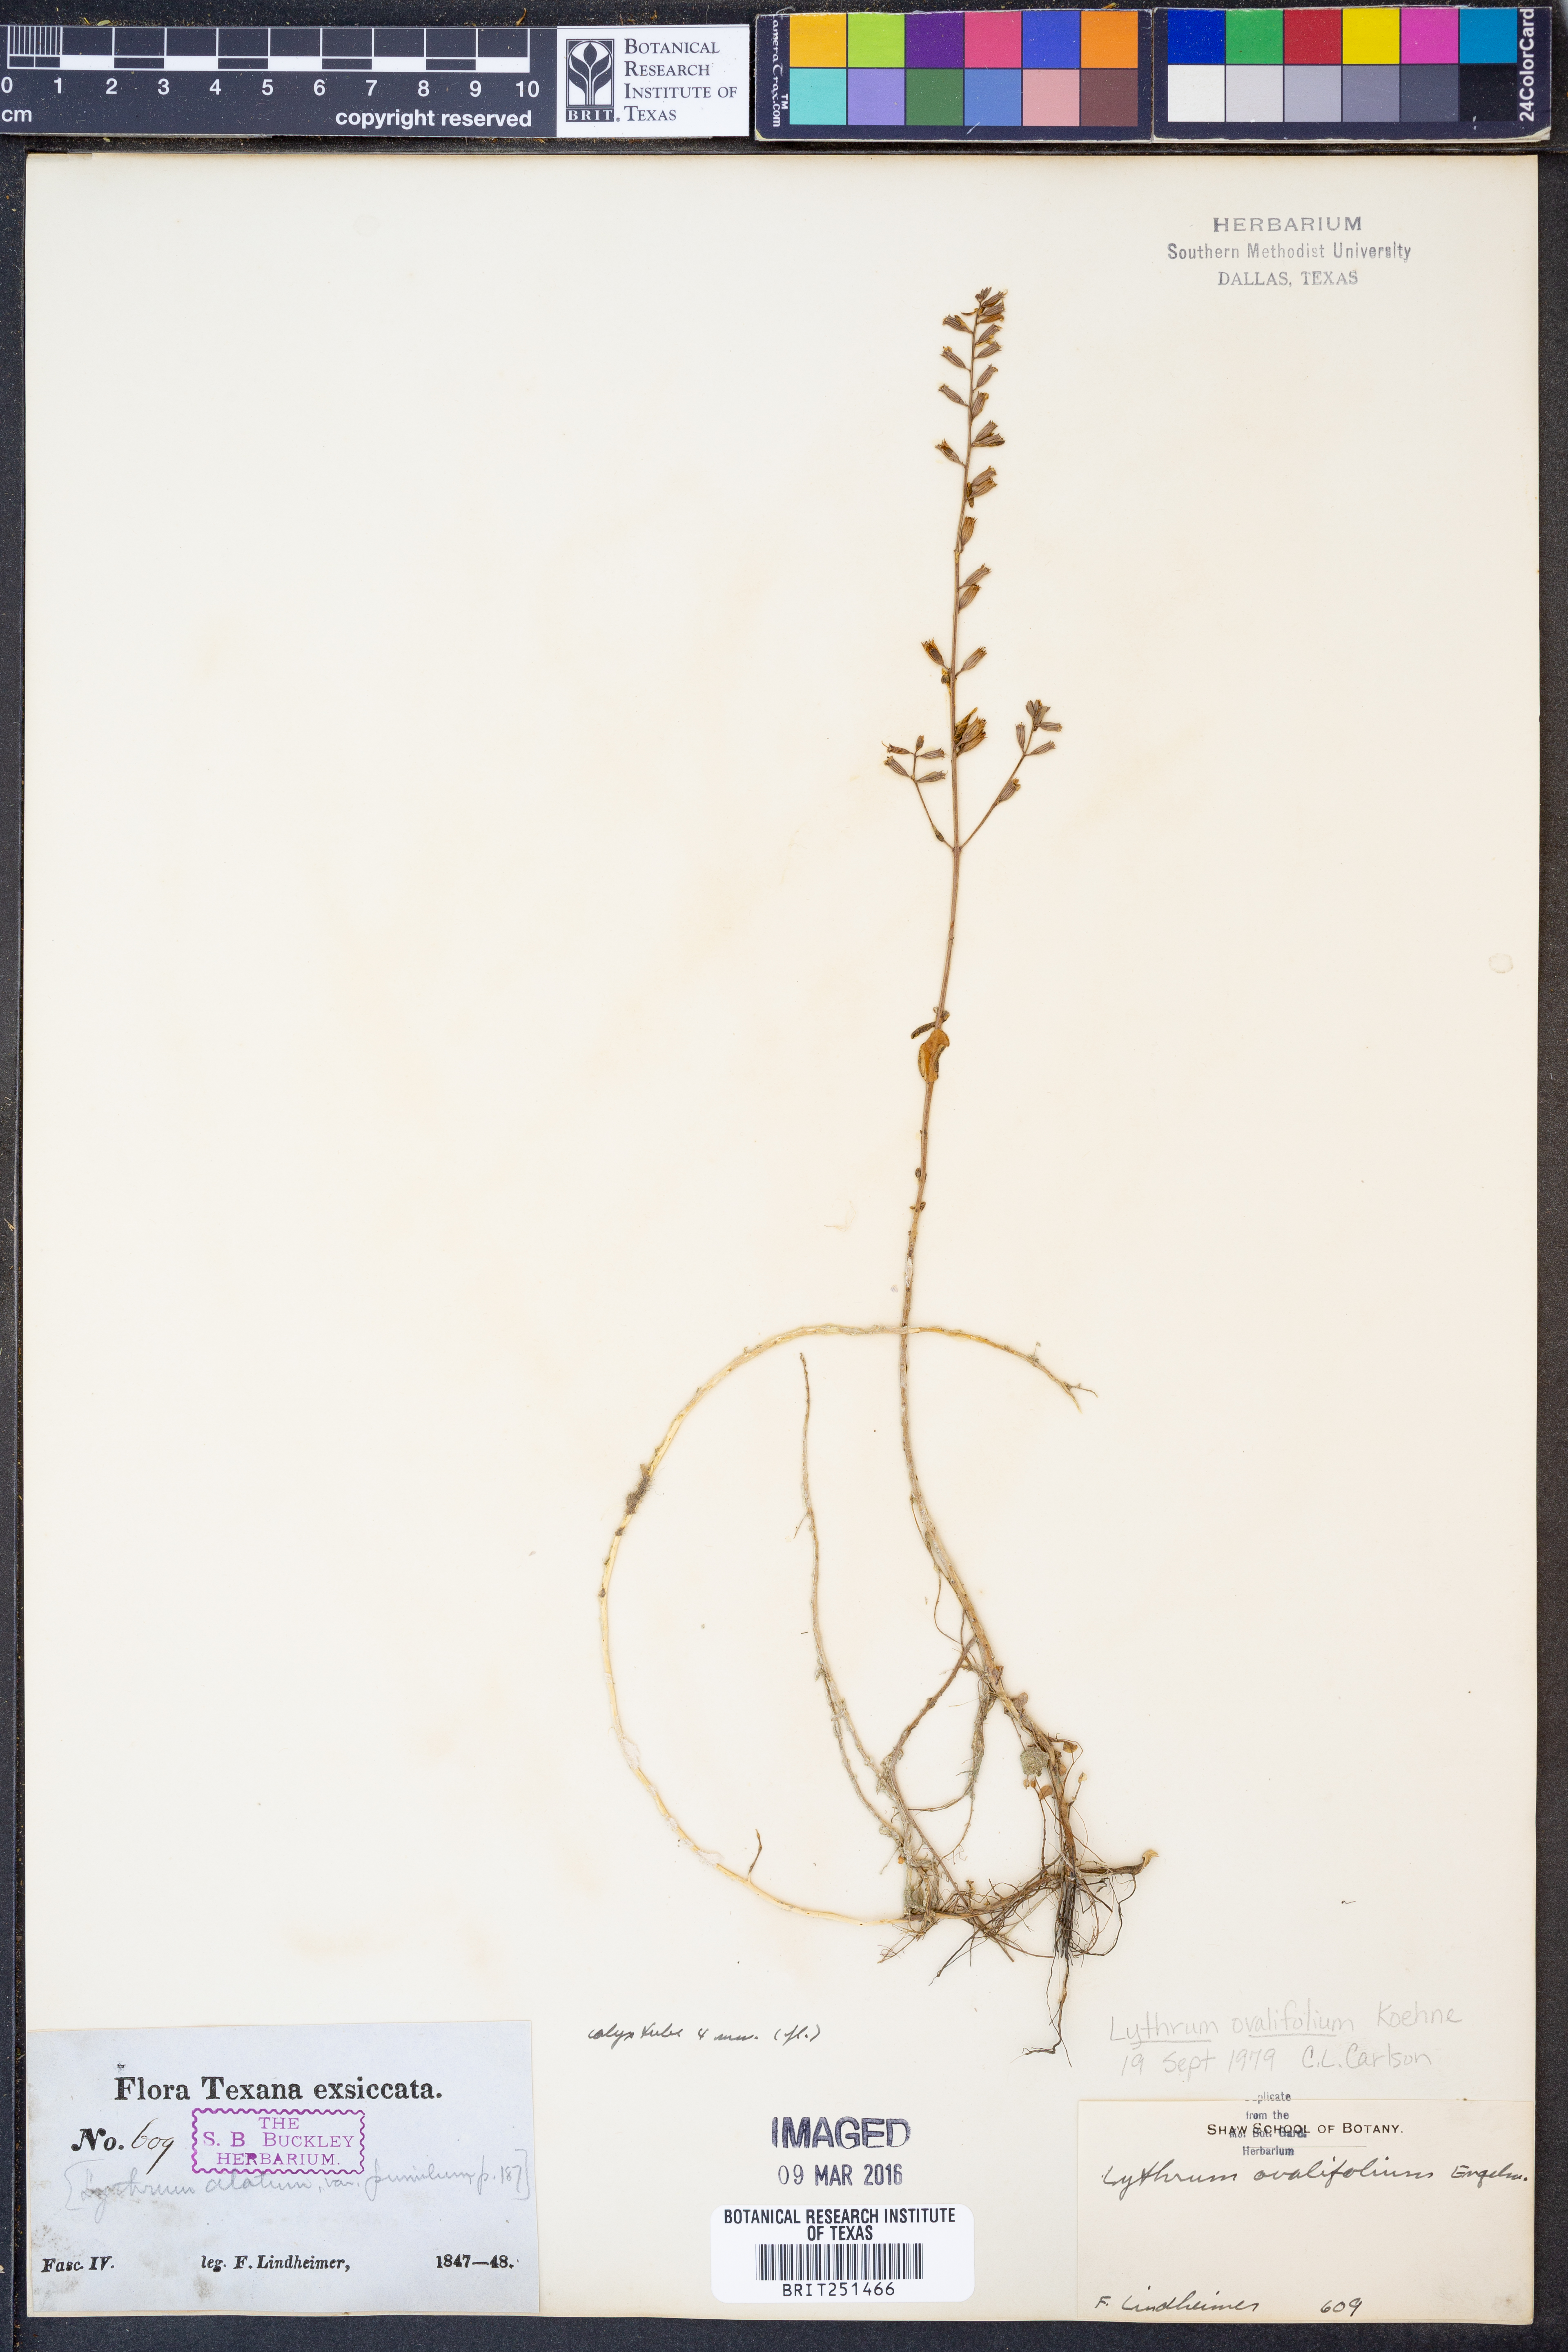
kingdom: Plantae
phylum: Tracheophyta
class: Magnoliopsida
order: Myrtales
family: Lythraceae
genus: Lythrum
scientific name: Lythrum ovalifolium
